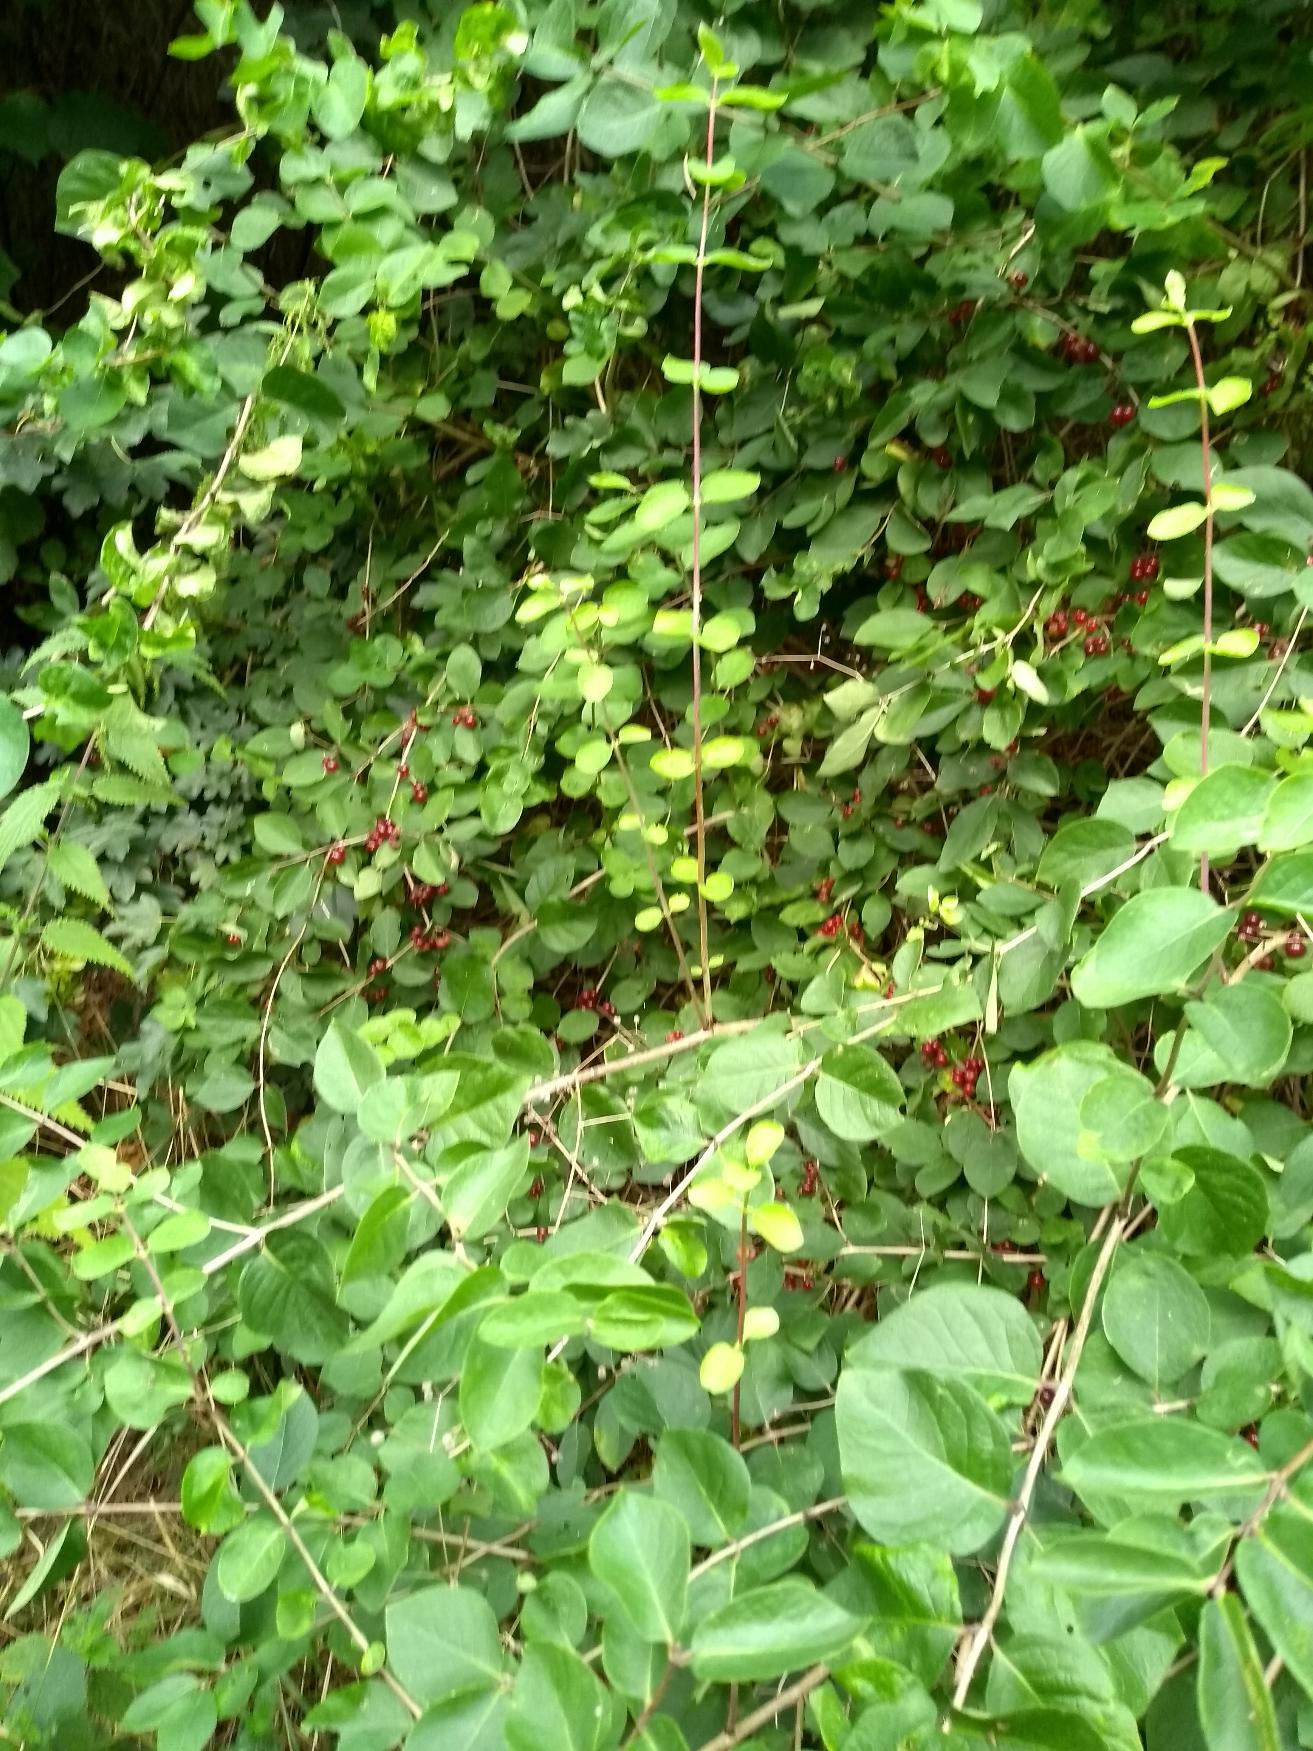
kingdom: Plantae
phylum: Tracheophyta
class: Magnoliopsida
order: Dipsacales
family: Caprifoliaceae
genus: Lonicera
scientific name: Lonicera xylosteum
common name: Dunet gedeblad
